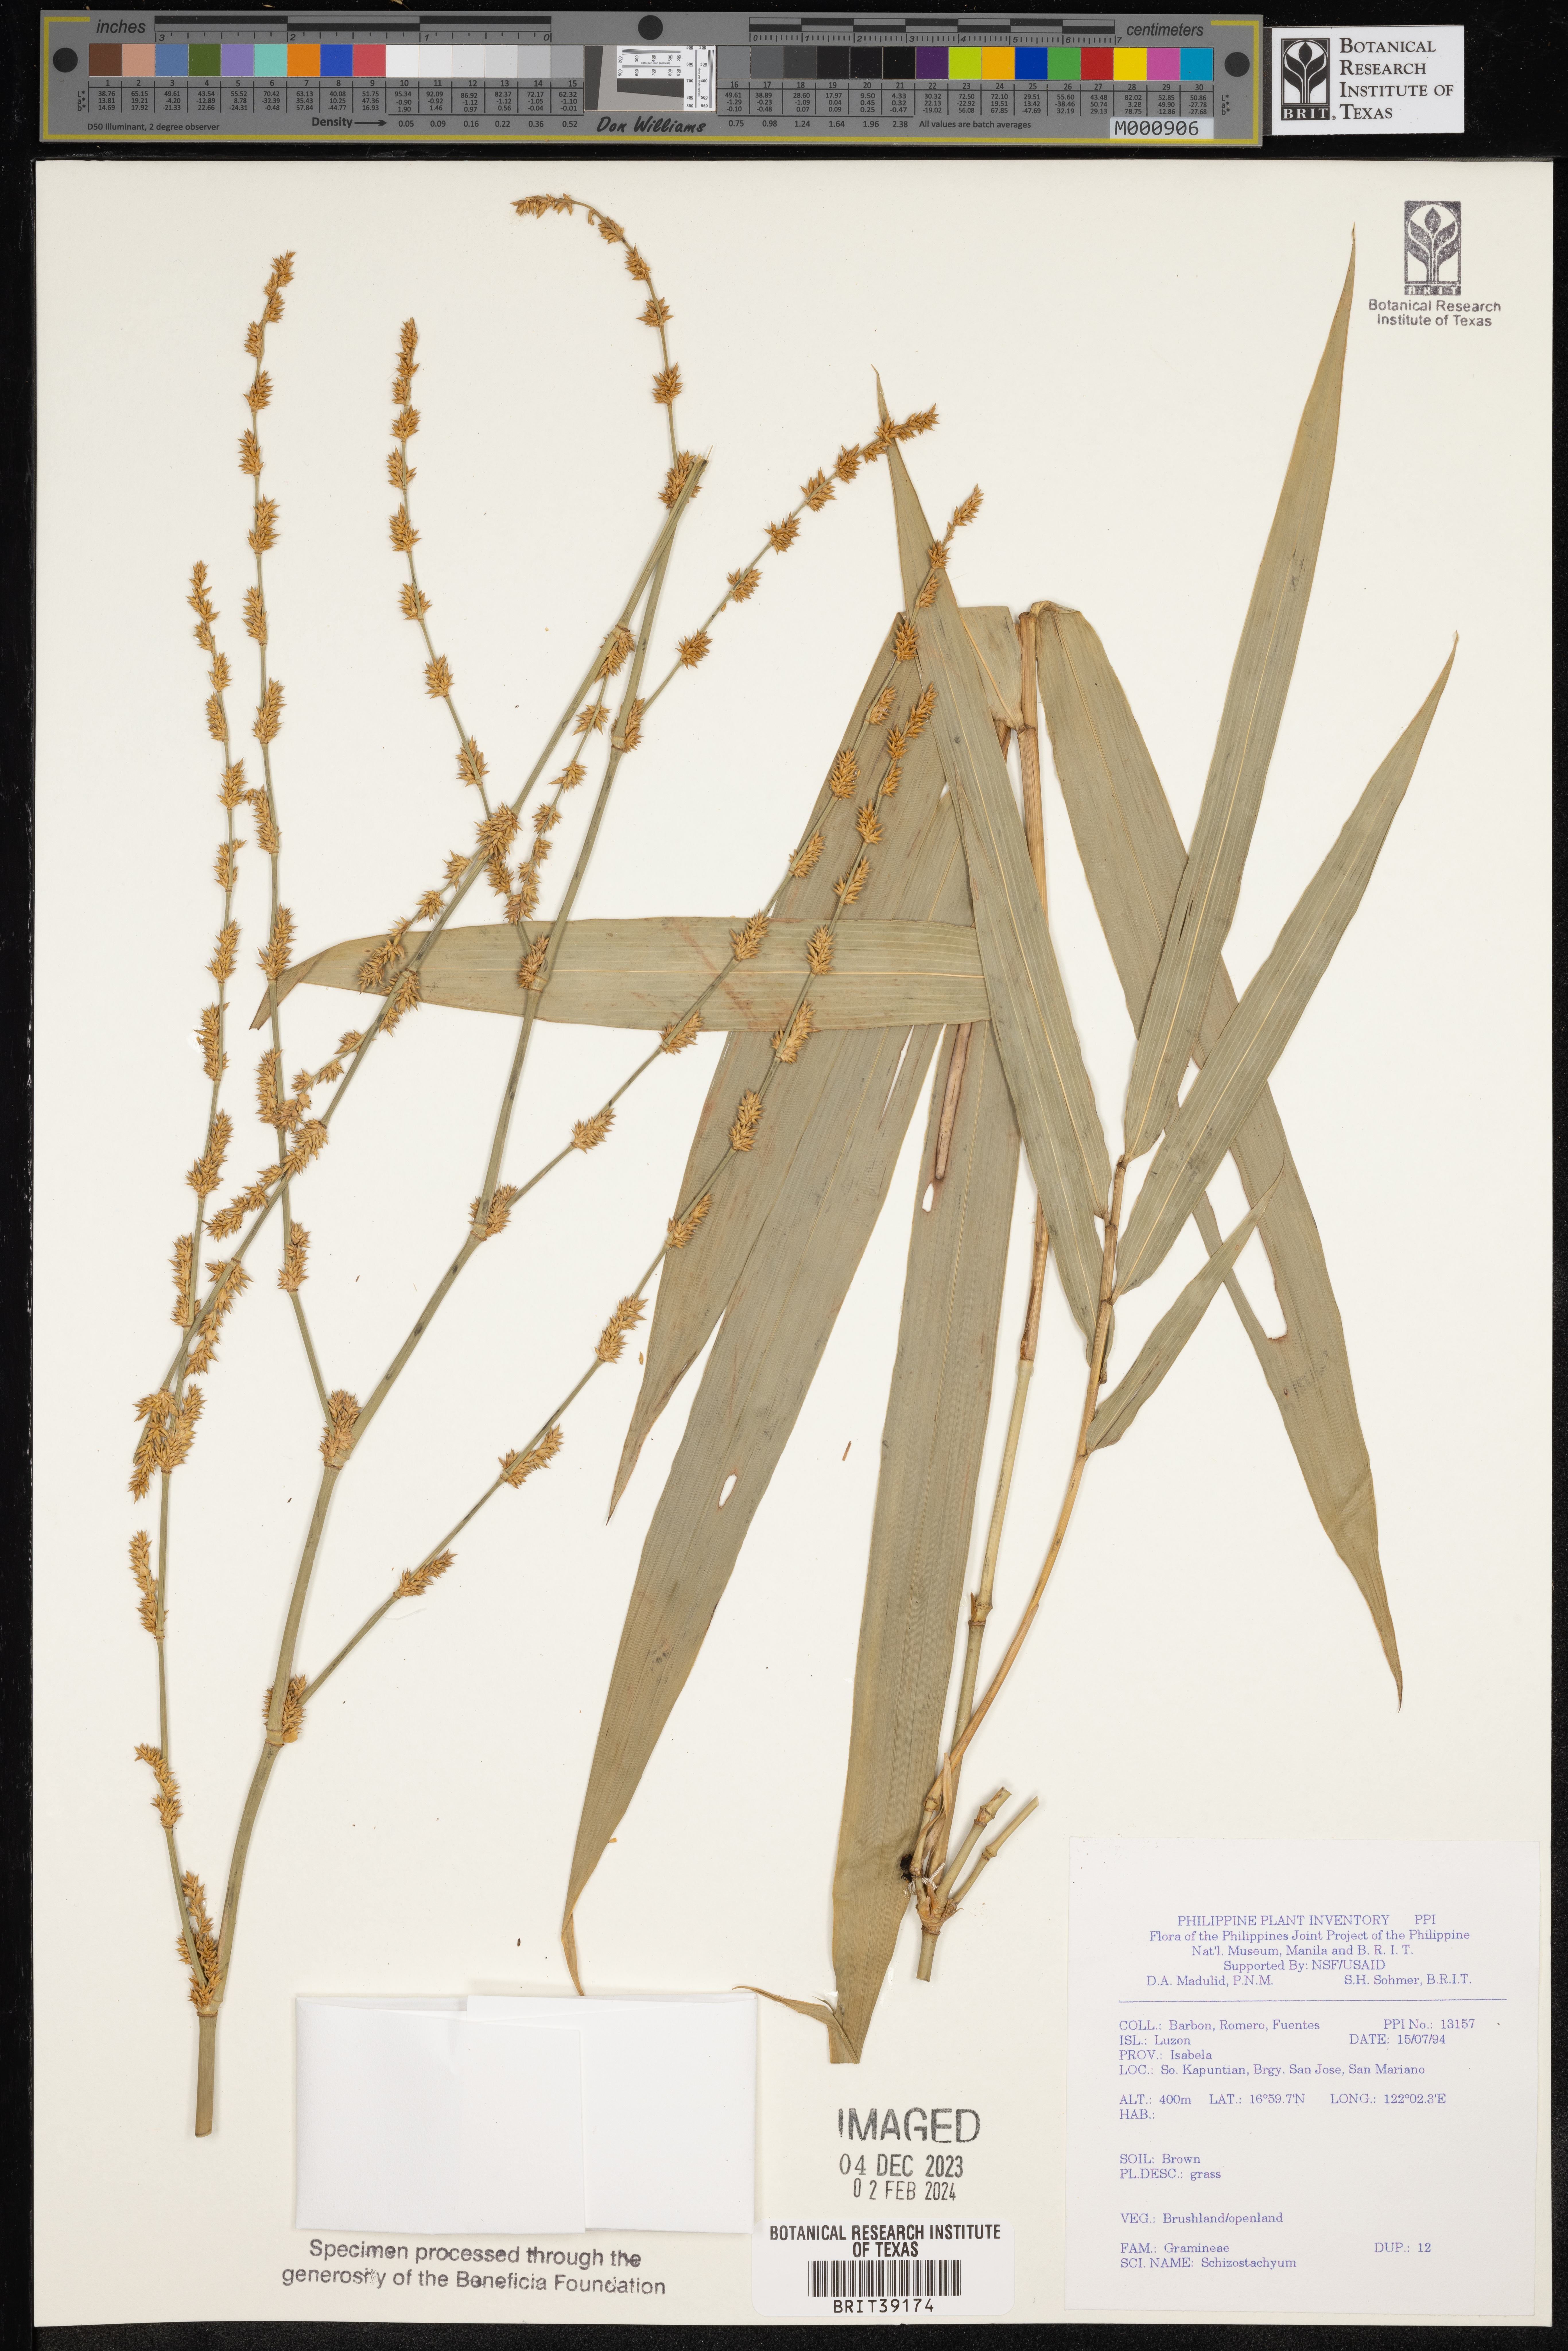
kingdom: Plantae
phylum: Tracheophyta
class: Liliopsida
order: Poales
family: Poaceae
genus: Schizostachyum
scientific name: Schizostachyum
